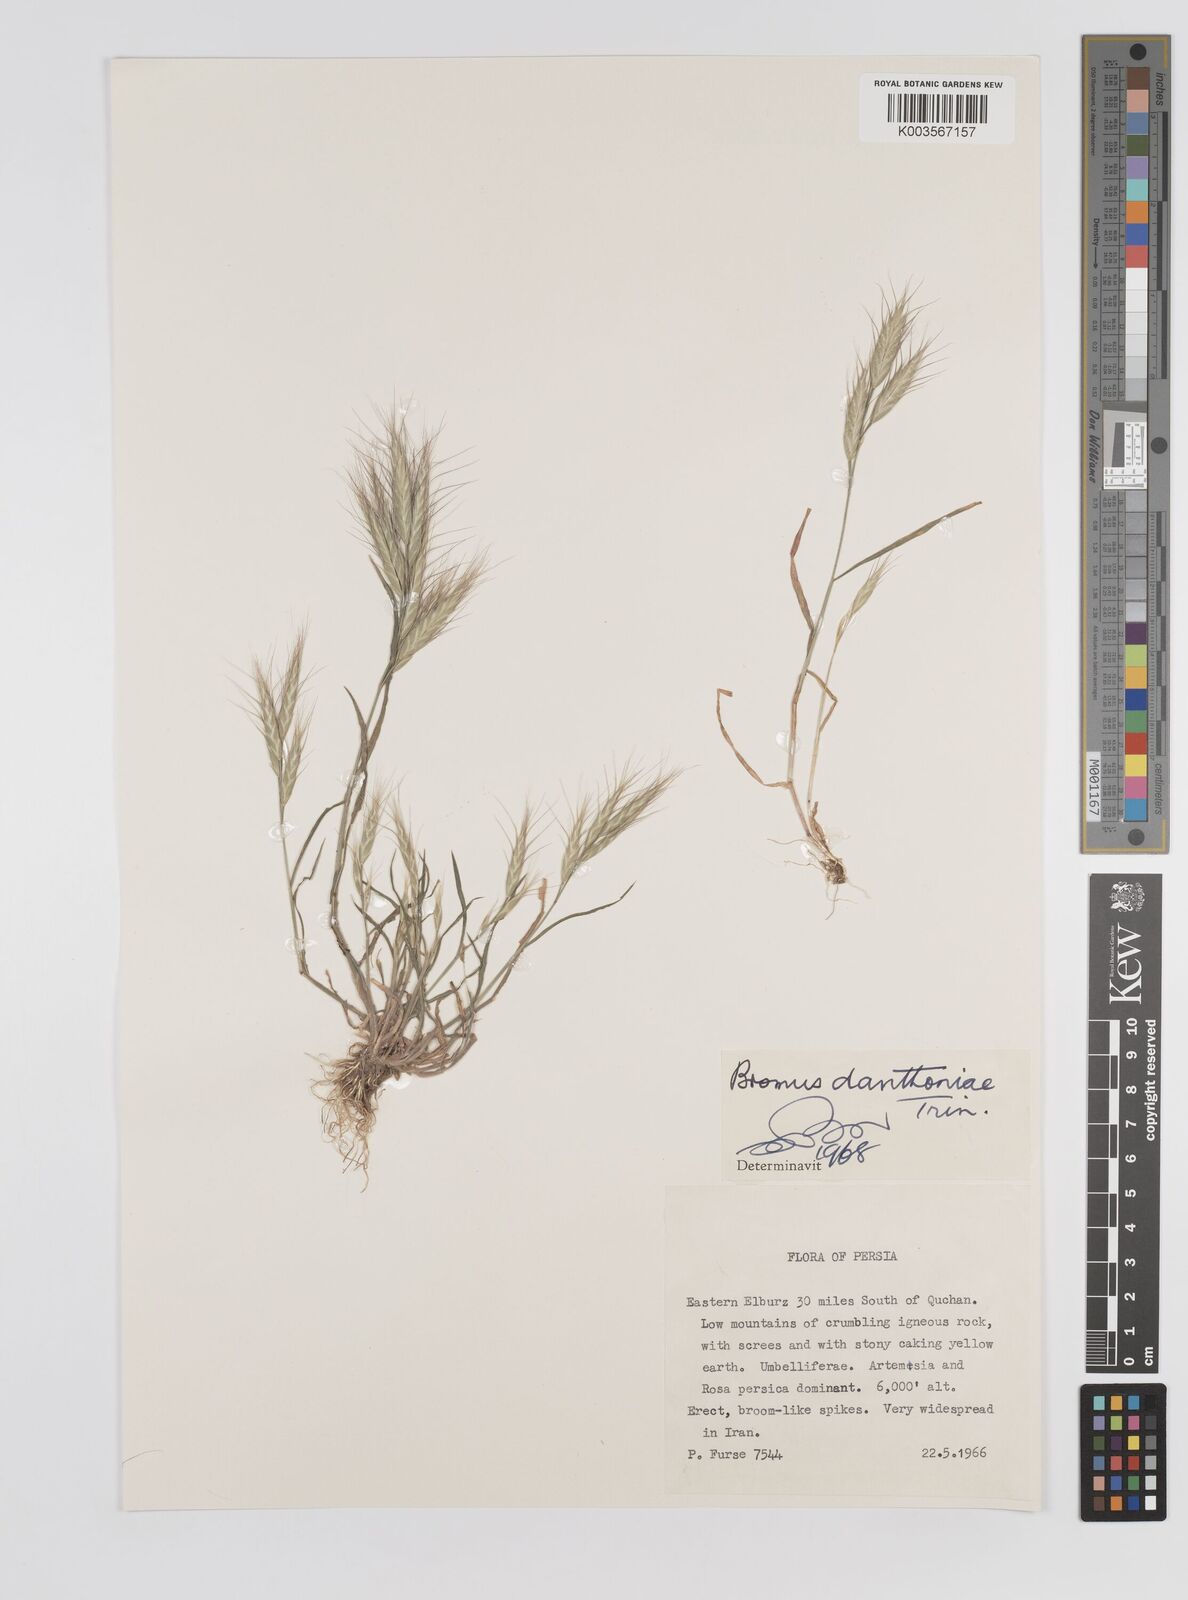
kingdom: Plantae
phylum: Tracheophyta
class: Liliopsida
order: Poales
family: Poaceae
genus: Bromus
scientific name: Bromus danthoniae
